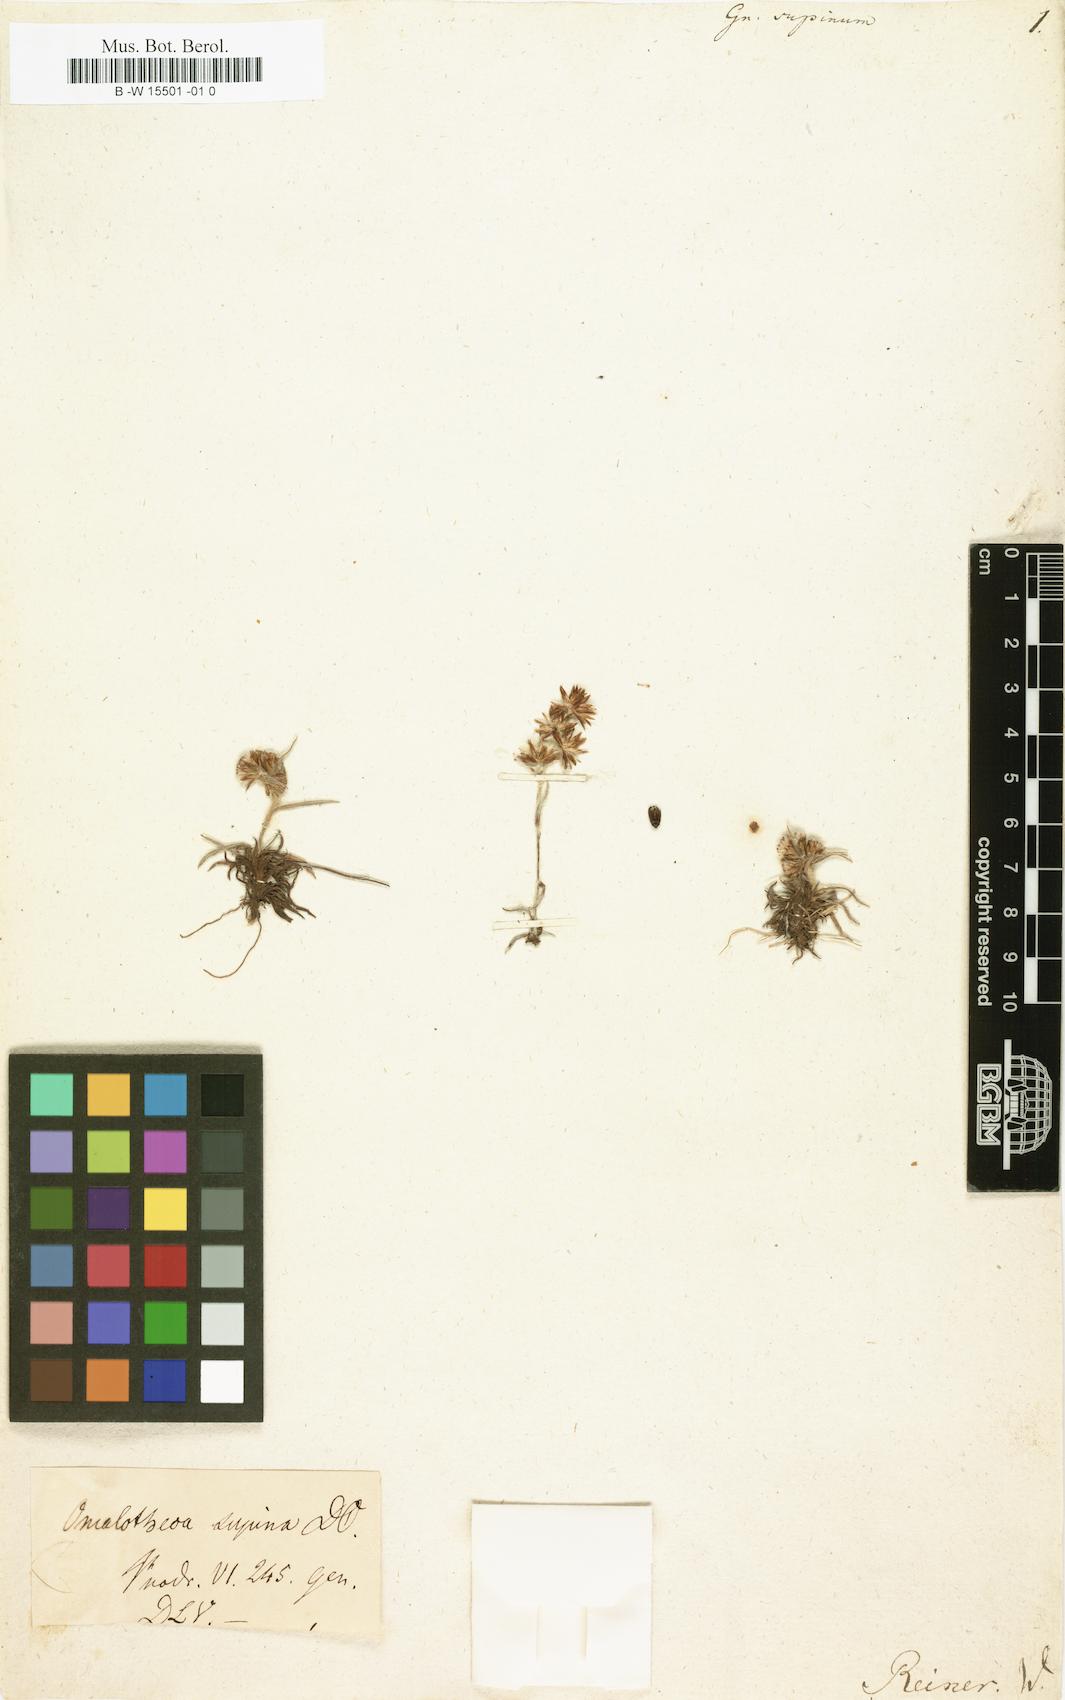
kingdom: Plantae
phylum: Tracheophyta
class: Magnoliopsida
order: Asterales
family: Asteraceae
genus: Omalotheca
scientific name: Omalotheca supina
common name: Alpine arctic-cudweed
